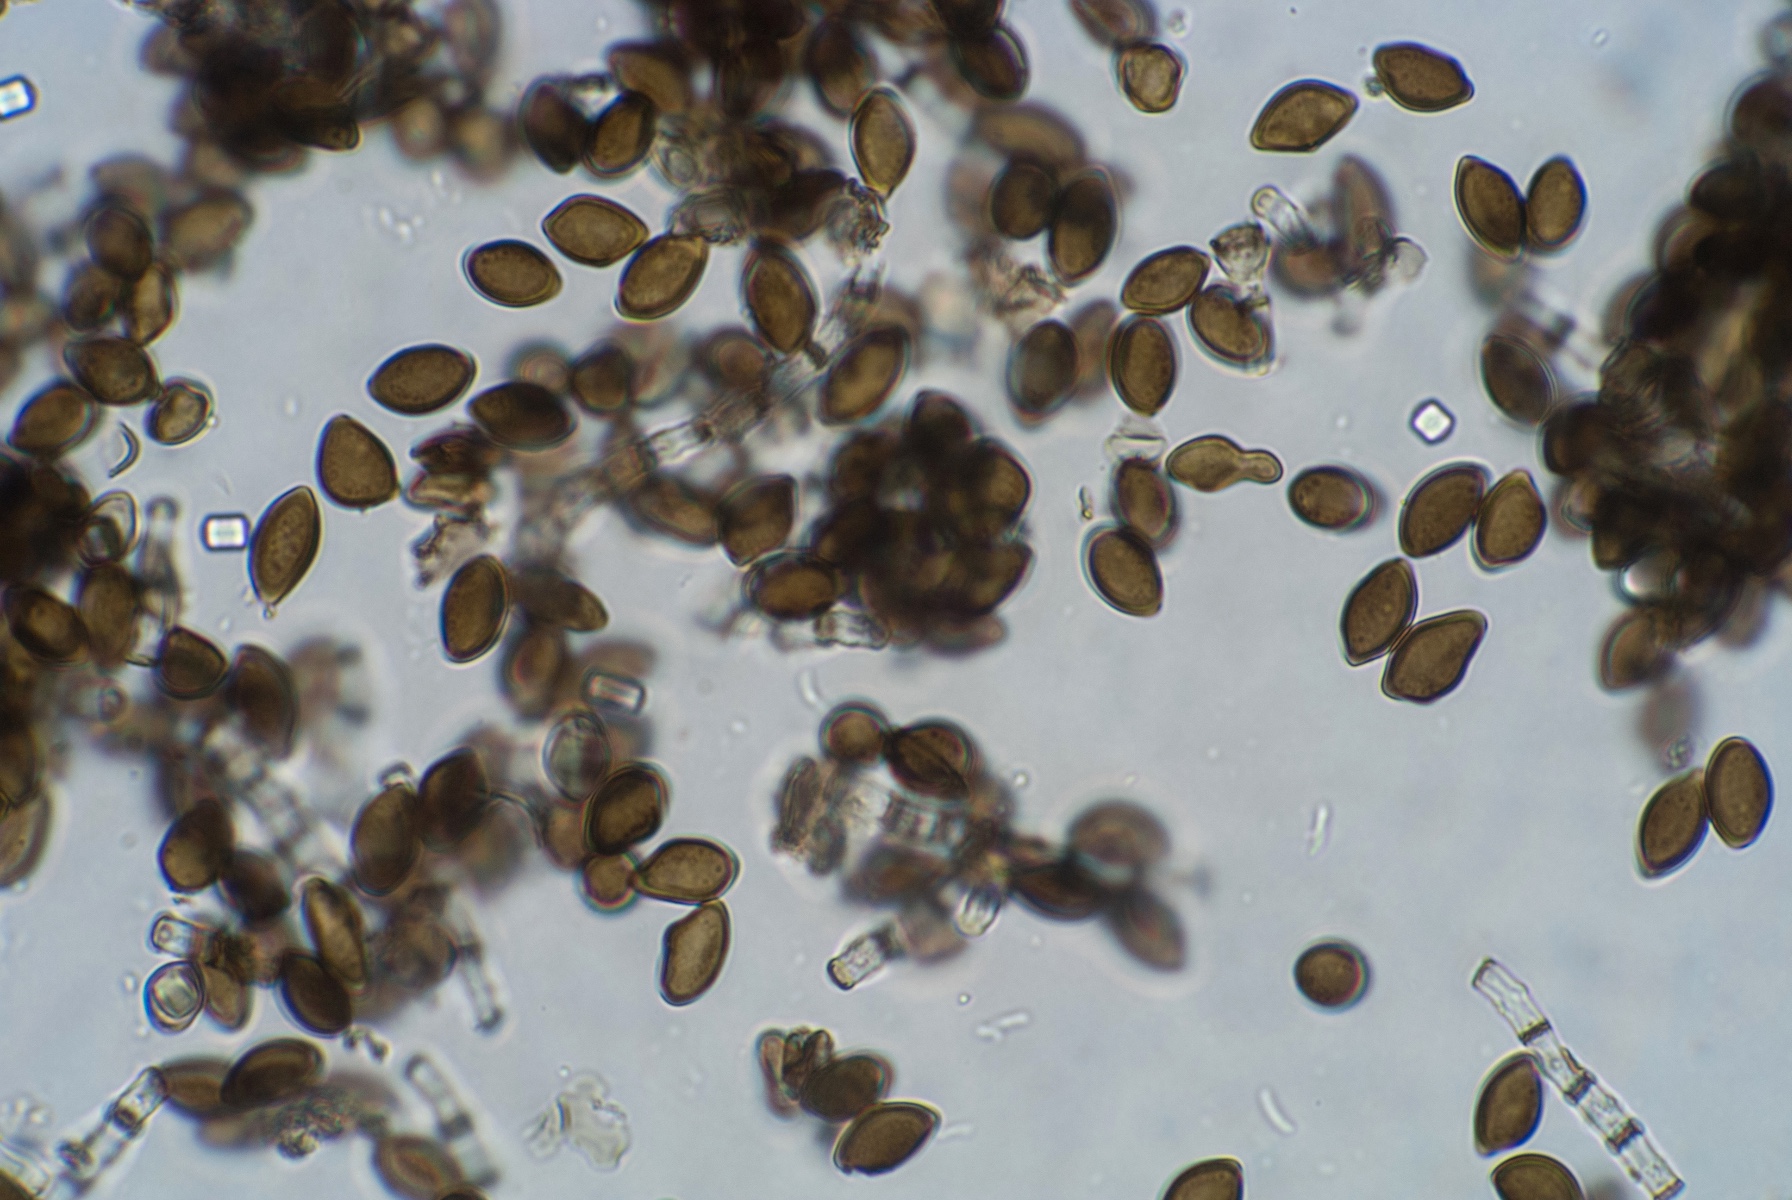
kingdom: Fungi
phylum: Ascomycota
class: Sordariomycetes
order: Xylariales
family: Apiosporaceae
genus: Arthrinium
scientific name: Arthrinium sporophleum
